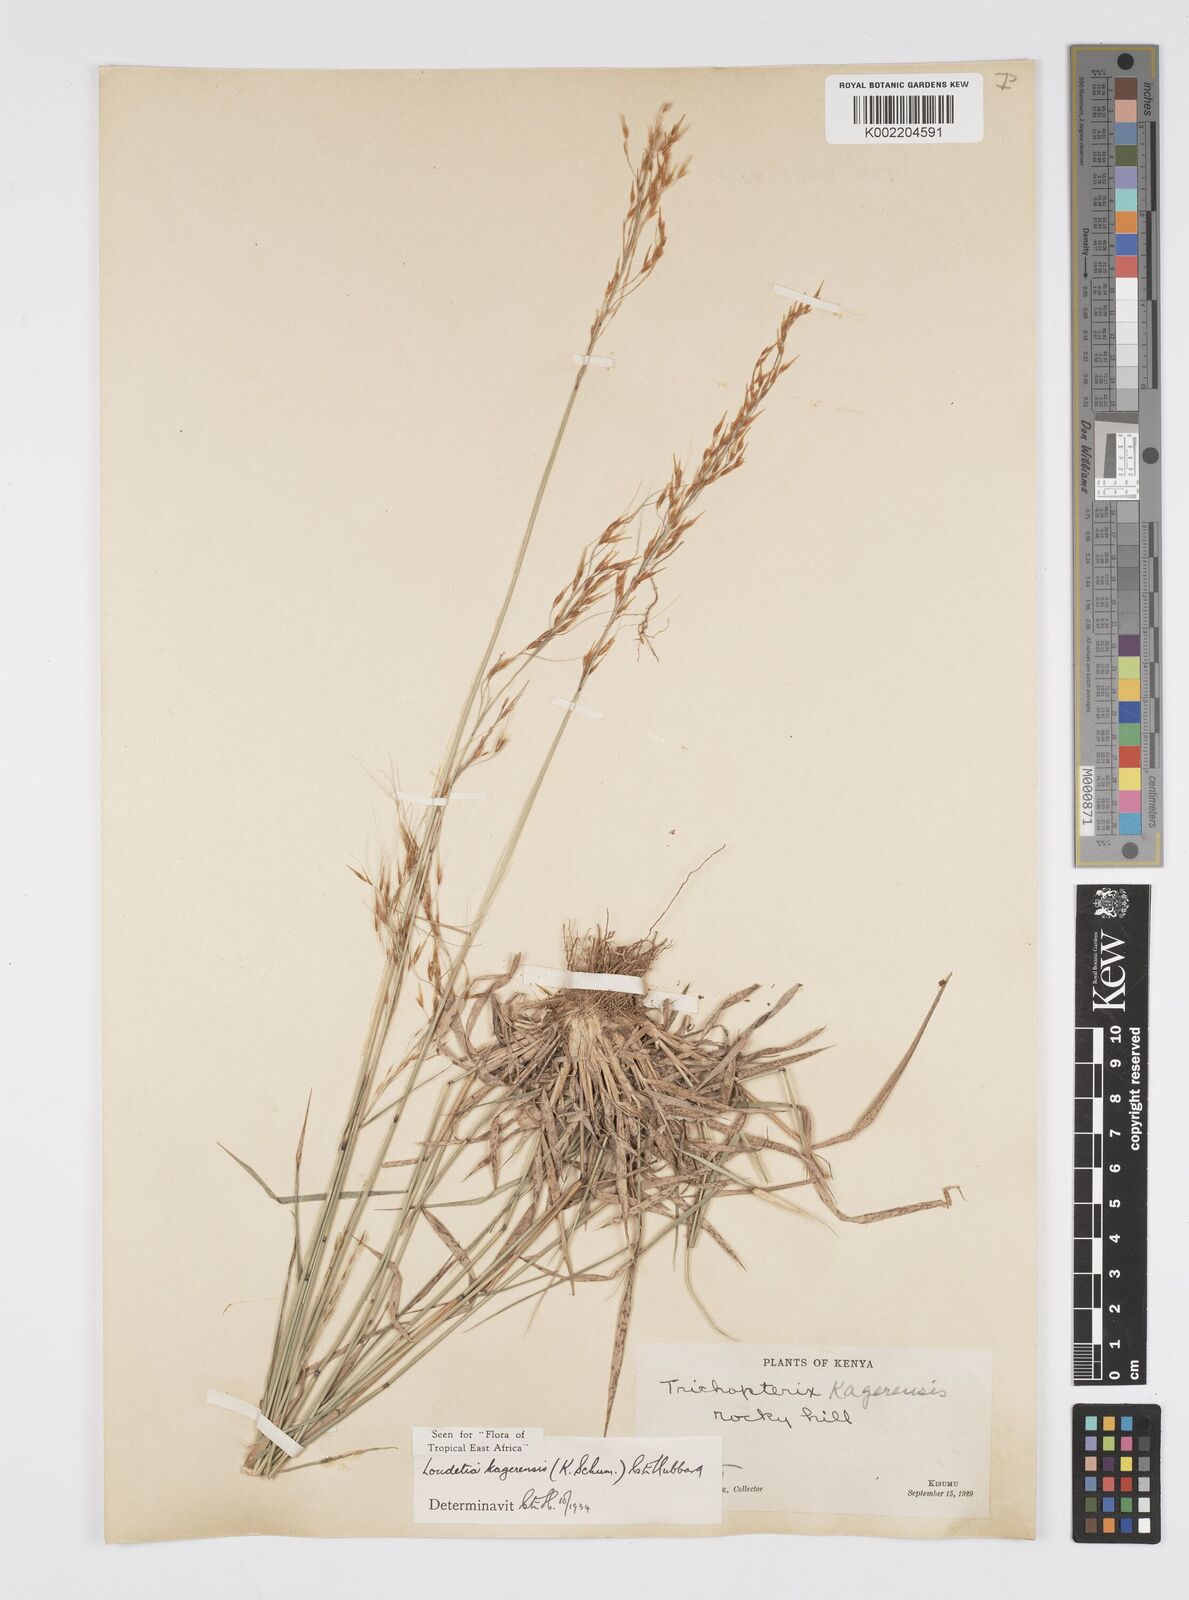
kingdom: Plantae
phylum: Tracheophyta
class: Liliopsida
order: Poales
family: Poaceae
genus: Loudetia
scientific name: Loudetia kagerensis
